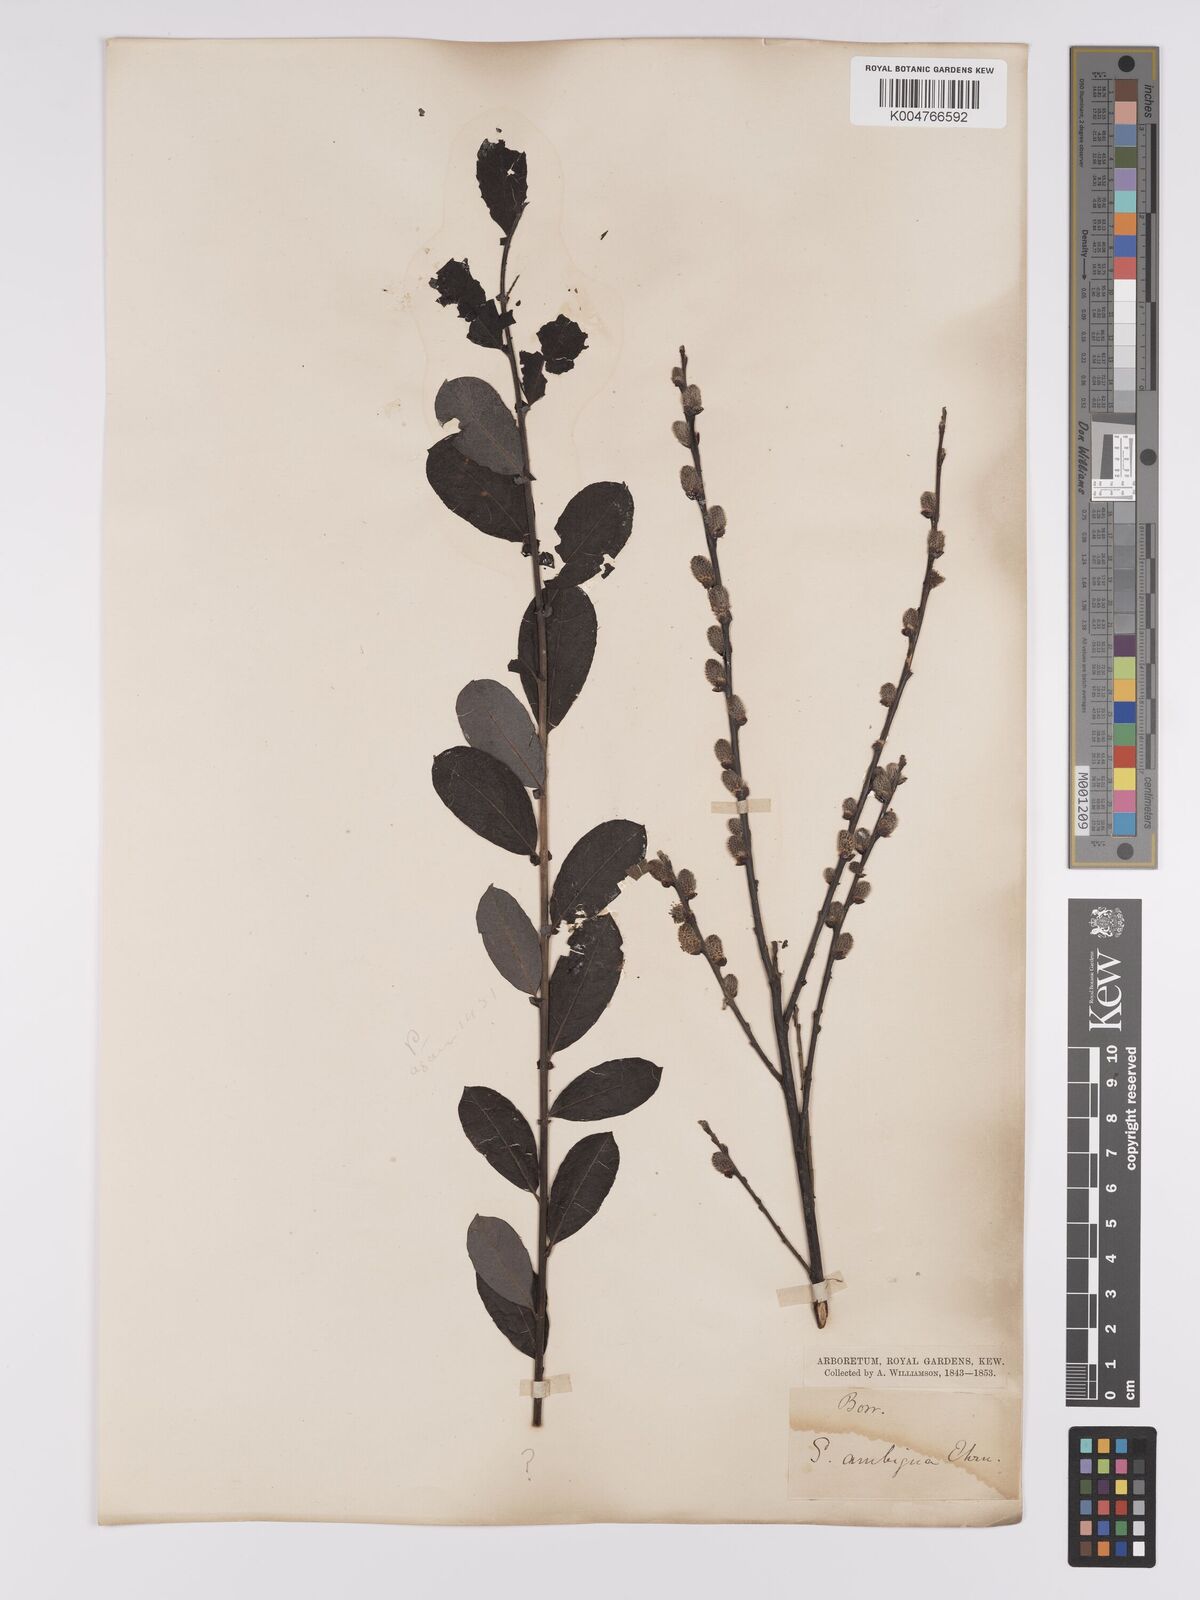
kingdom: Plantae
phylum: Tracheophyta
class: Magnoliopsida
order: Malpighiales
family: Salicaceae
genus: Salix
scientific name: Salix
